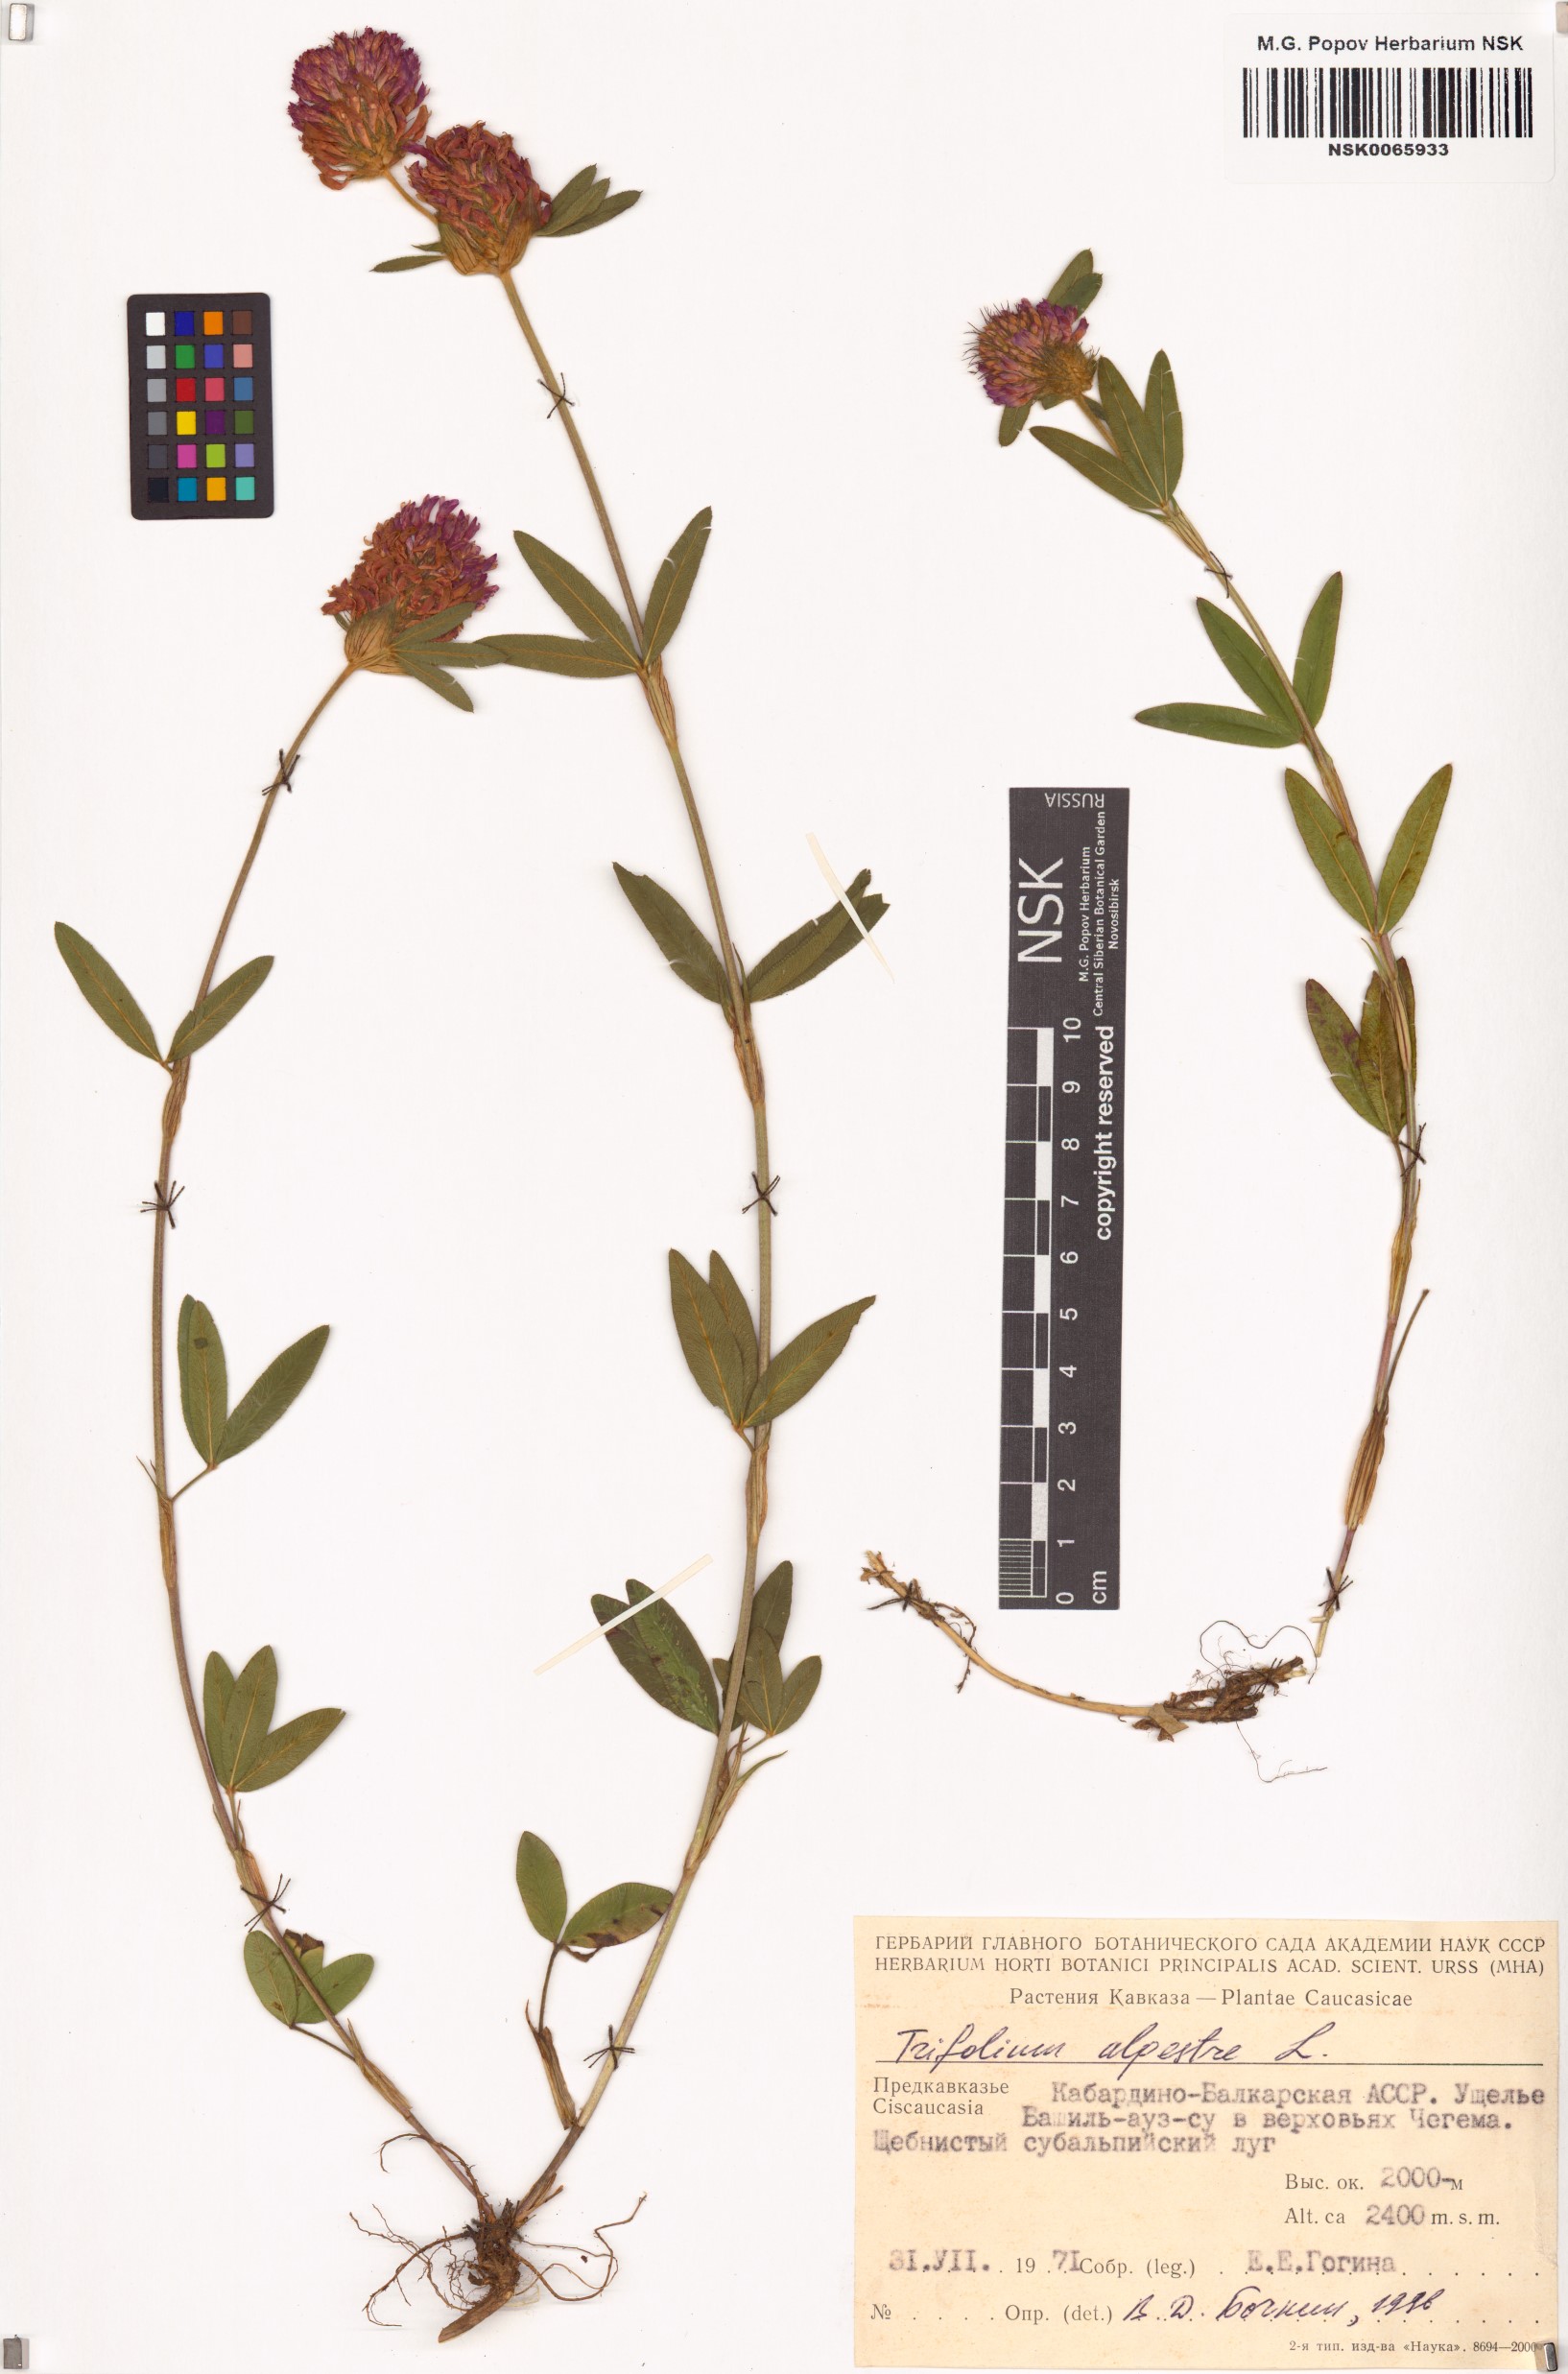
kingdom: Plantae
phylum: Tracheophyta
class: Magnoliopsida
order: Fabales
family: Fabaceae
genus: Trifolium
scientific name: Trifolium alpestre
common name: Owl-head clover
